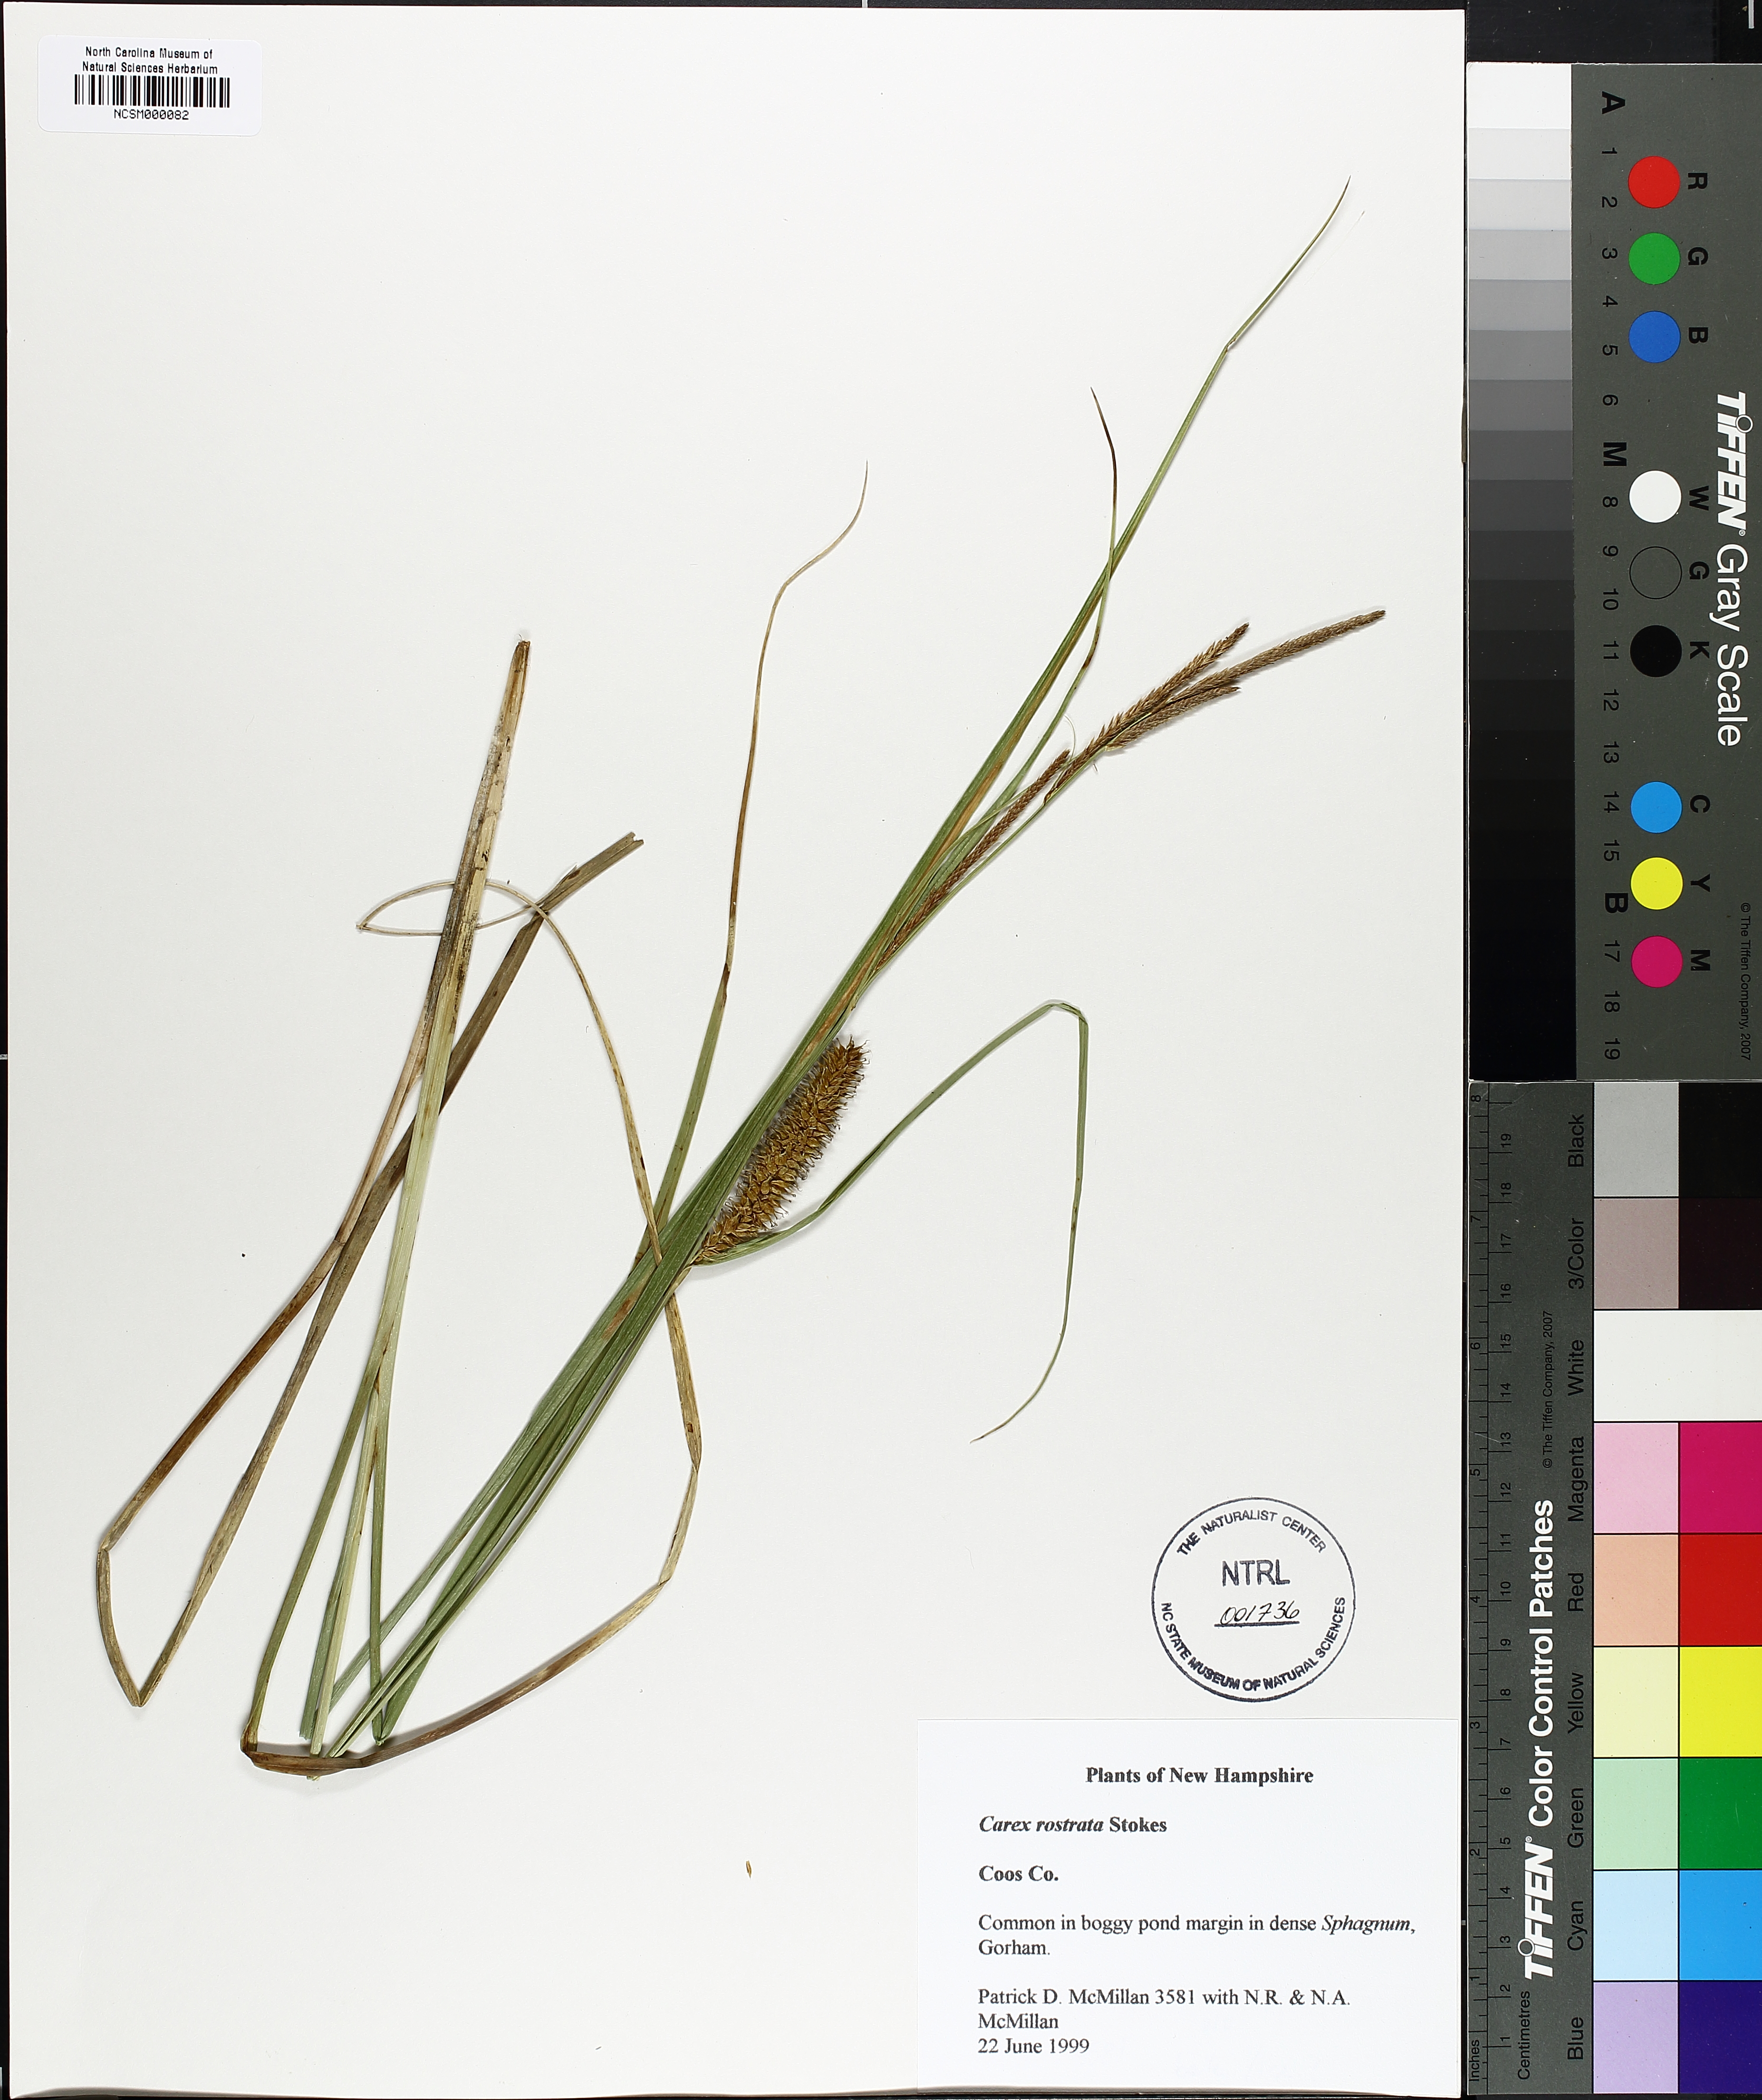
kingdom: Plantae
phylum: Tracheophyta
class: Liliopsida
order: Poales
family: Cyperaceae
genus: Carex
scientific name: Carex rostrata
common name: Bottle sedge
